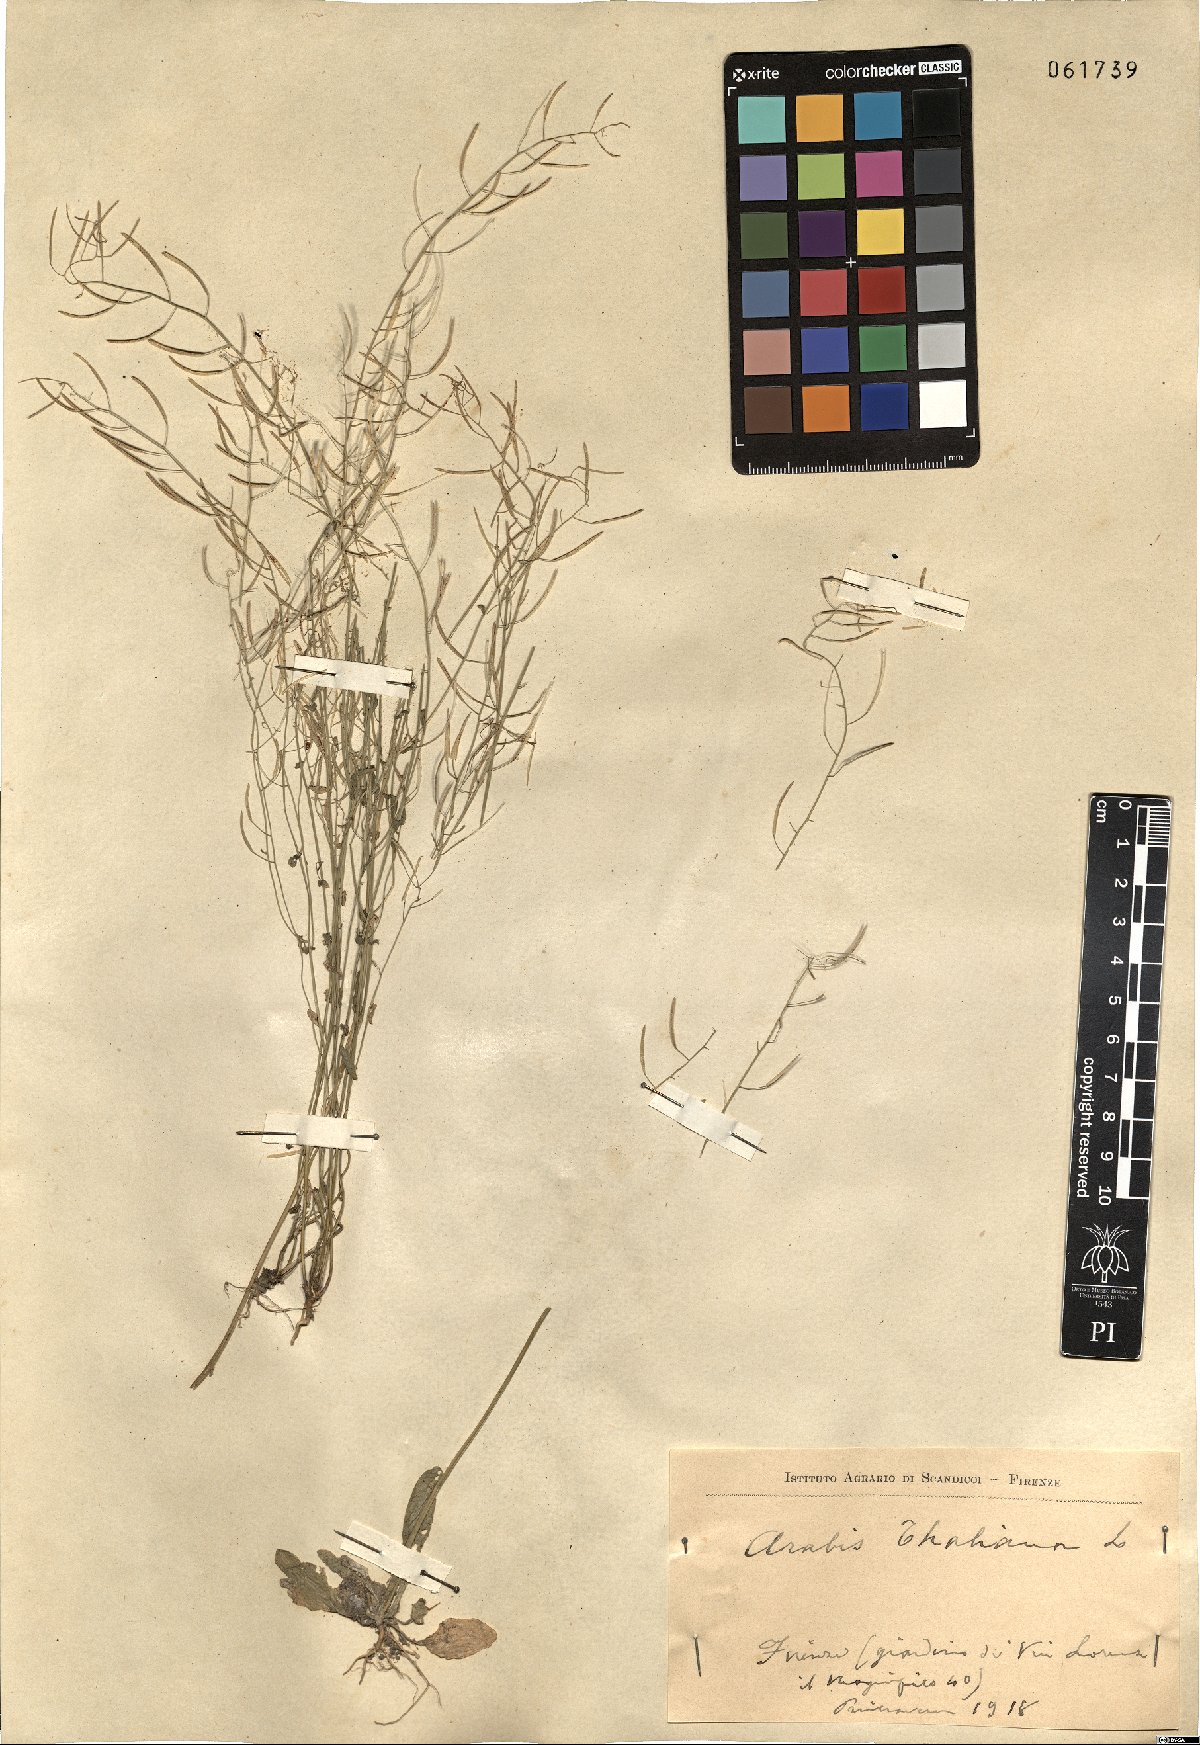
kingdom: Plantae
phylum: Tracheophyta
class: Magnoliopsida
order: Brassicales
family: Brassicaceae
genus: Arabidopsis
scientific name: Arabidopsis thaliana
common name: Thale cress
